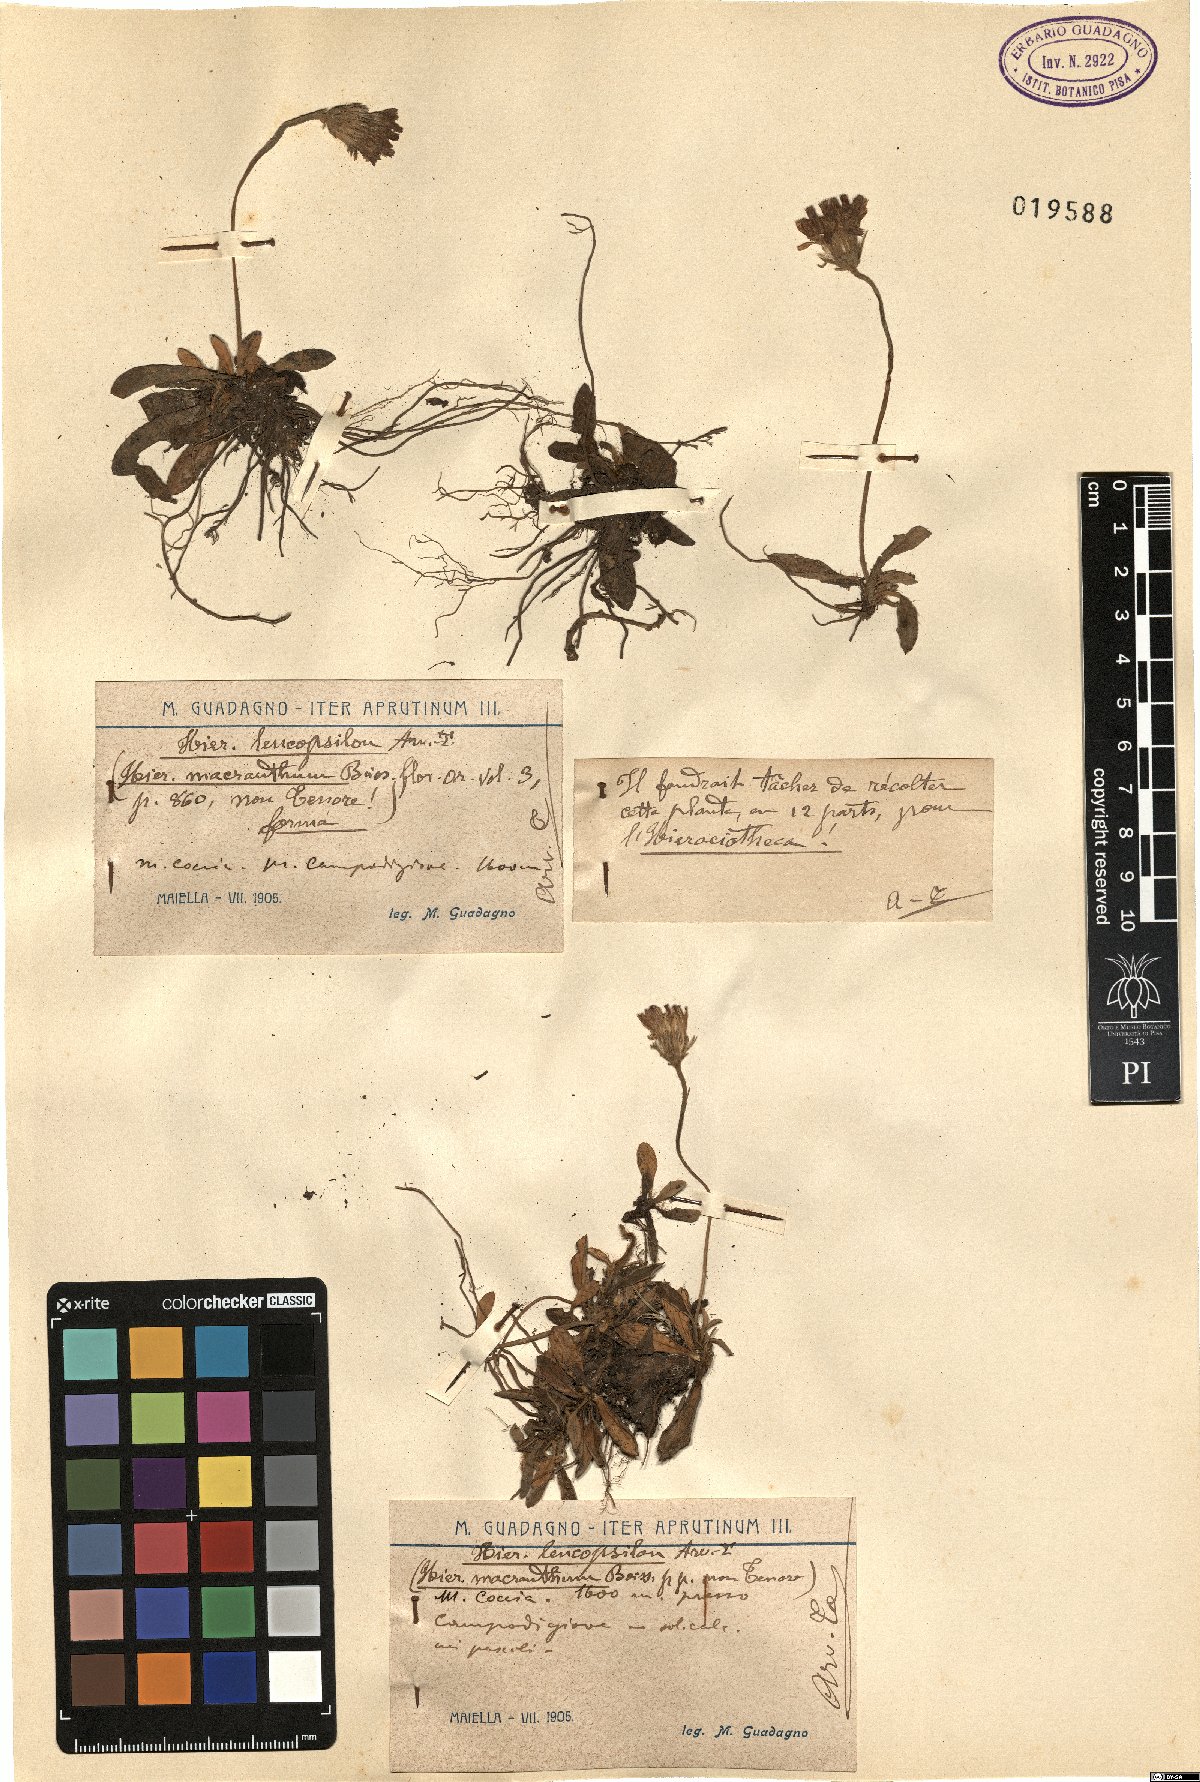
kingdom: Plantae
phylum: Tracheophyta
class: Magnoliopsida
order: Asterales
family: Asteraceae
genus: Pilosella
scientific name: Pilosella leucopsilon
